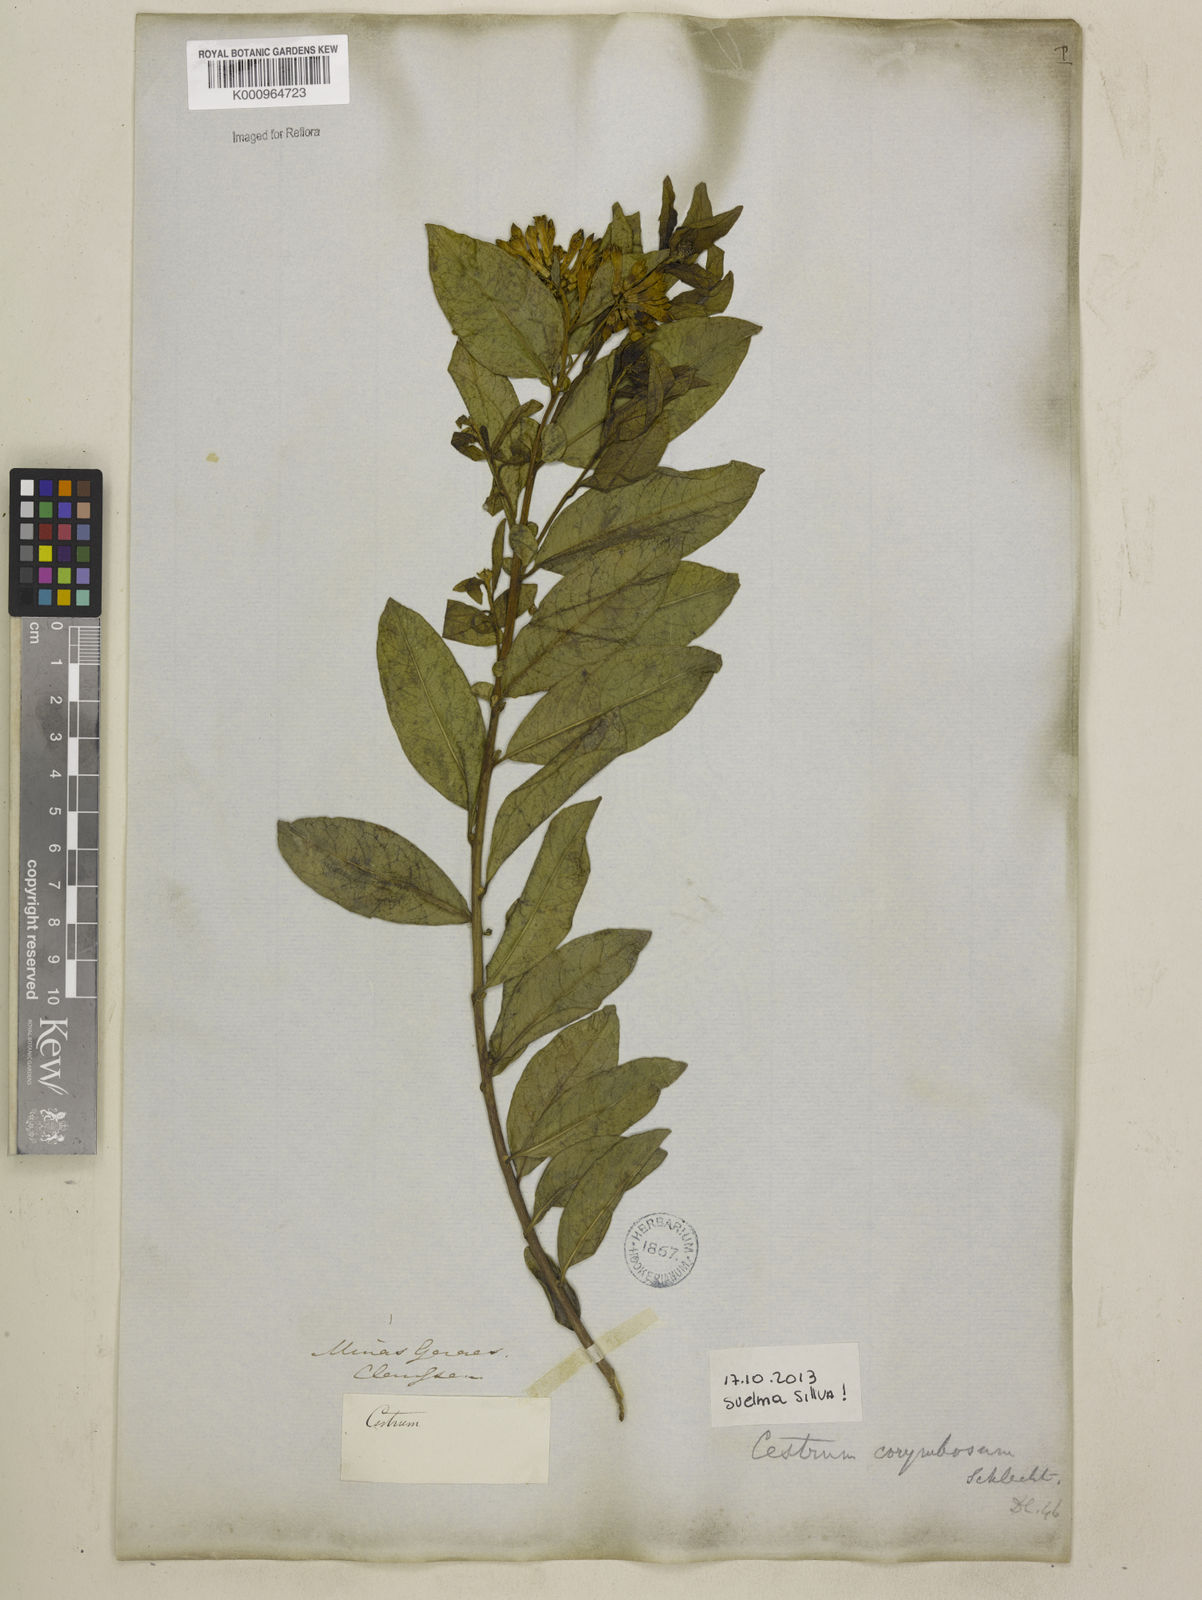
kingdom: Plantae
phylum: Tracheophyta
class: Magnoliopsida
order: Solanales
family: Solanaceae
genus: Cestrum
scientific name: Cestrum corymbosum
